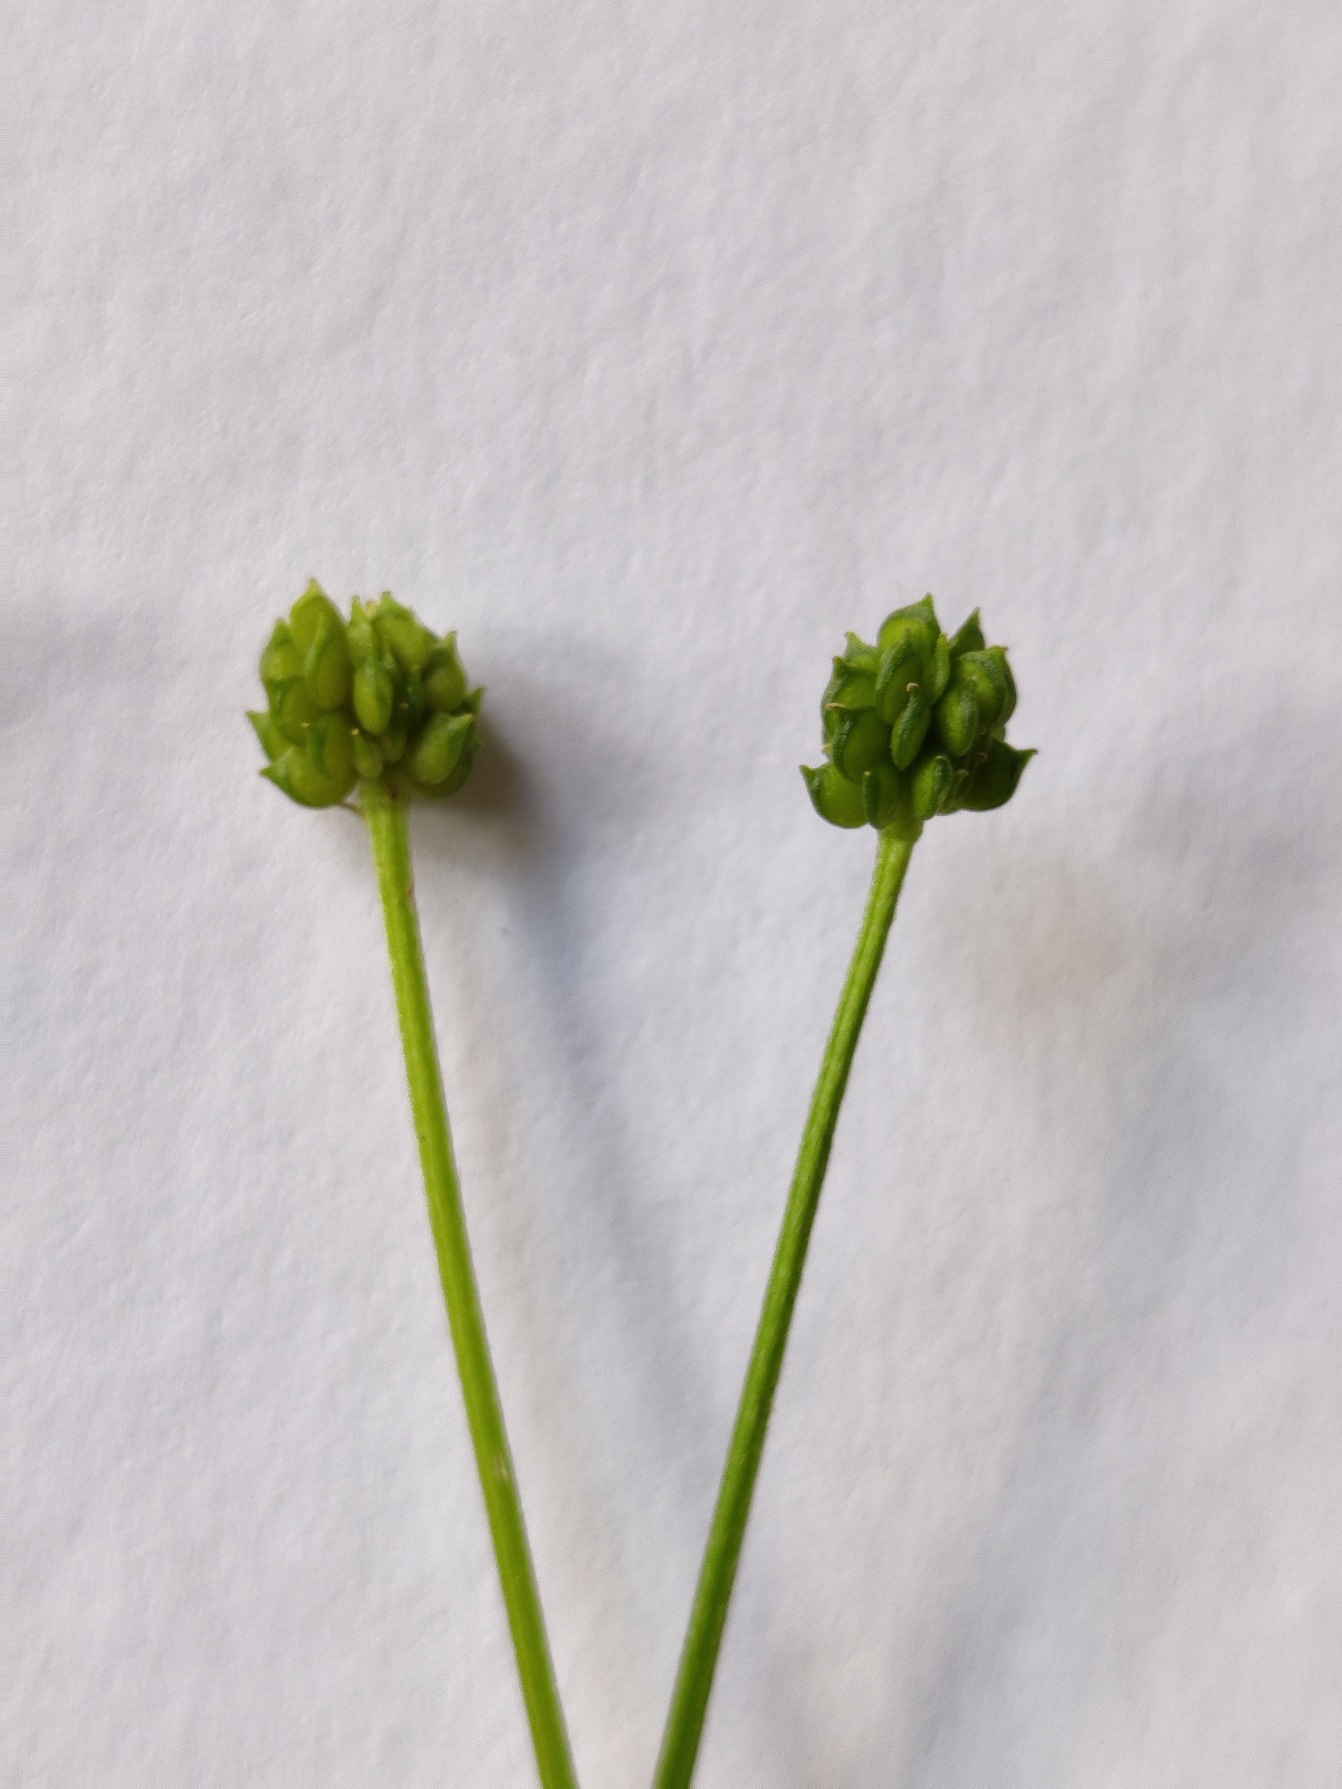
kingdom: Plantae
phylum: Tracheophyta
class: Magnoliopsida
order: Ranunculales
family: Ranunculaceae
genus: Ranunculus
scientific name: Ranunculus sardous
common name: Stivhåret ranunkel
